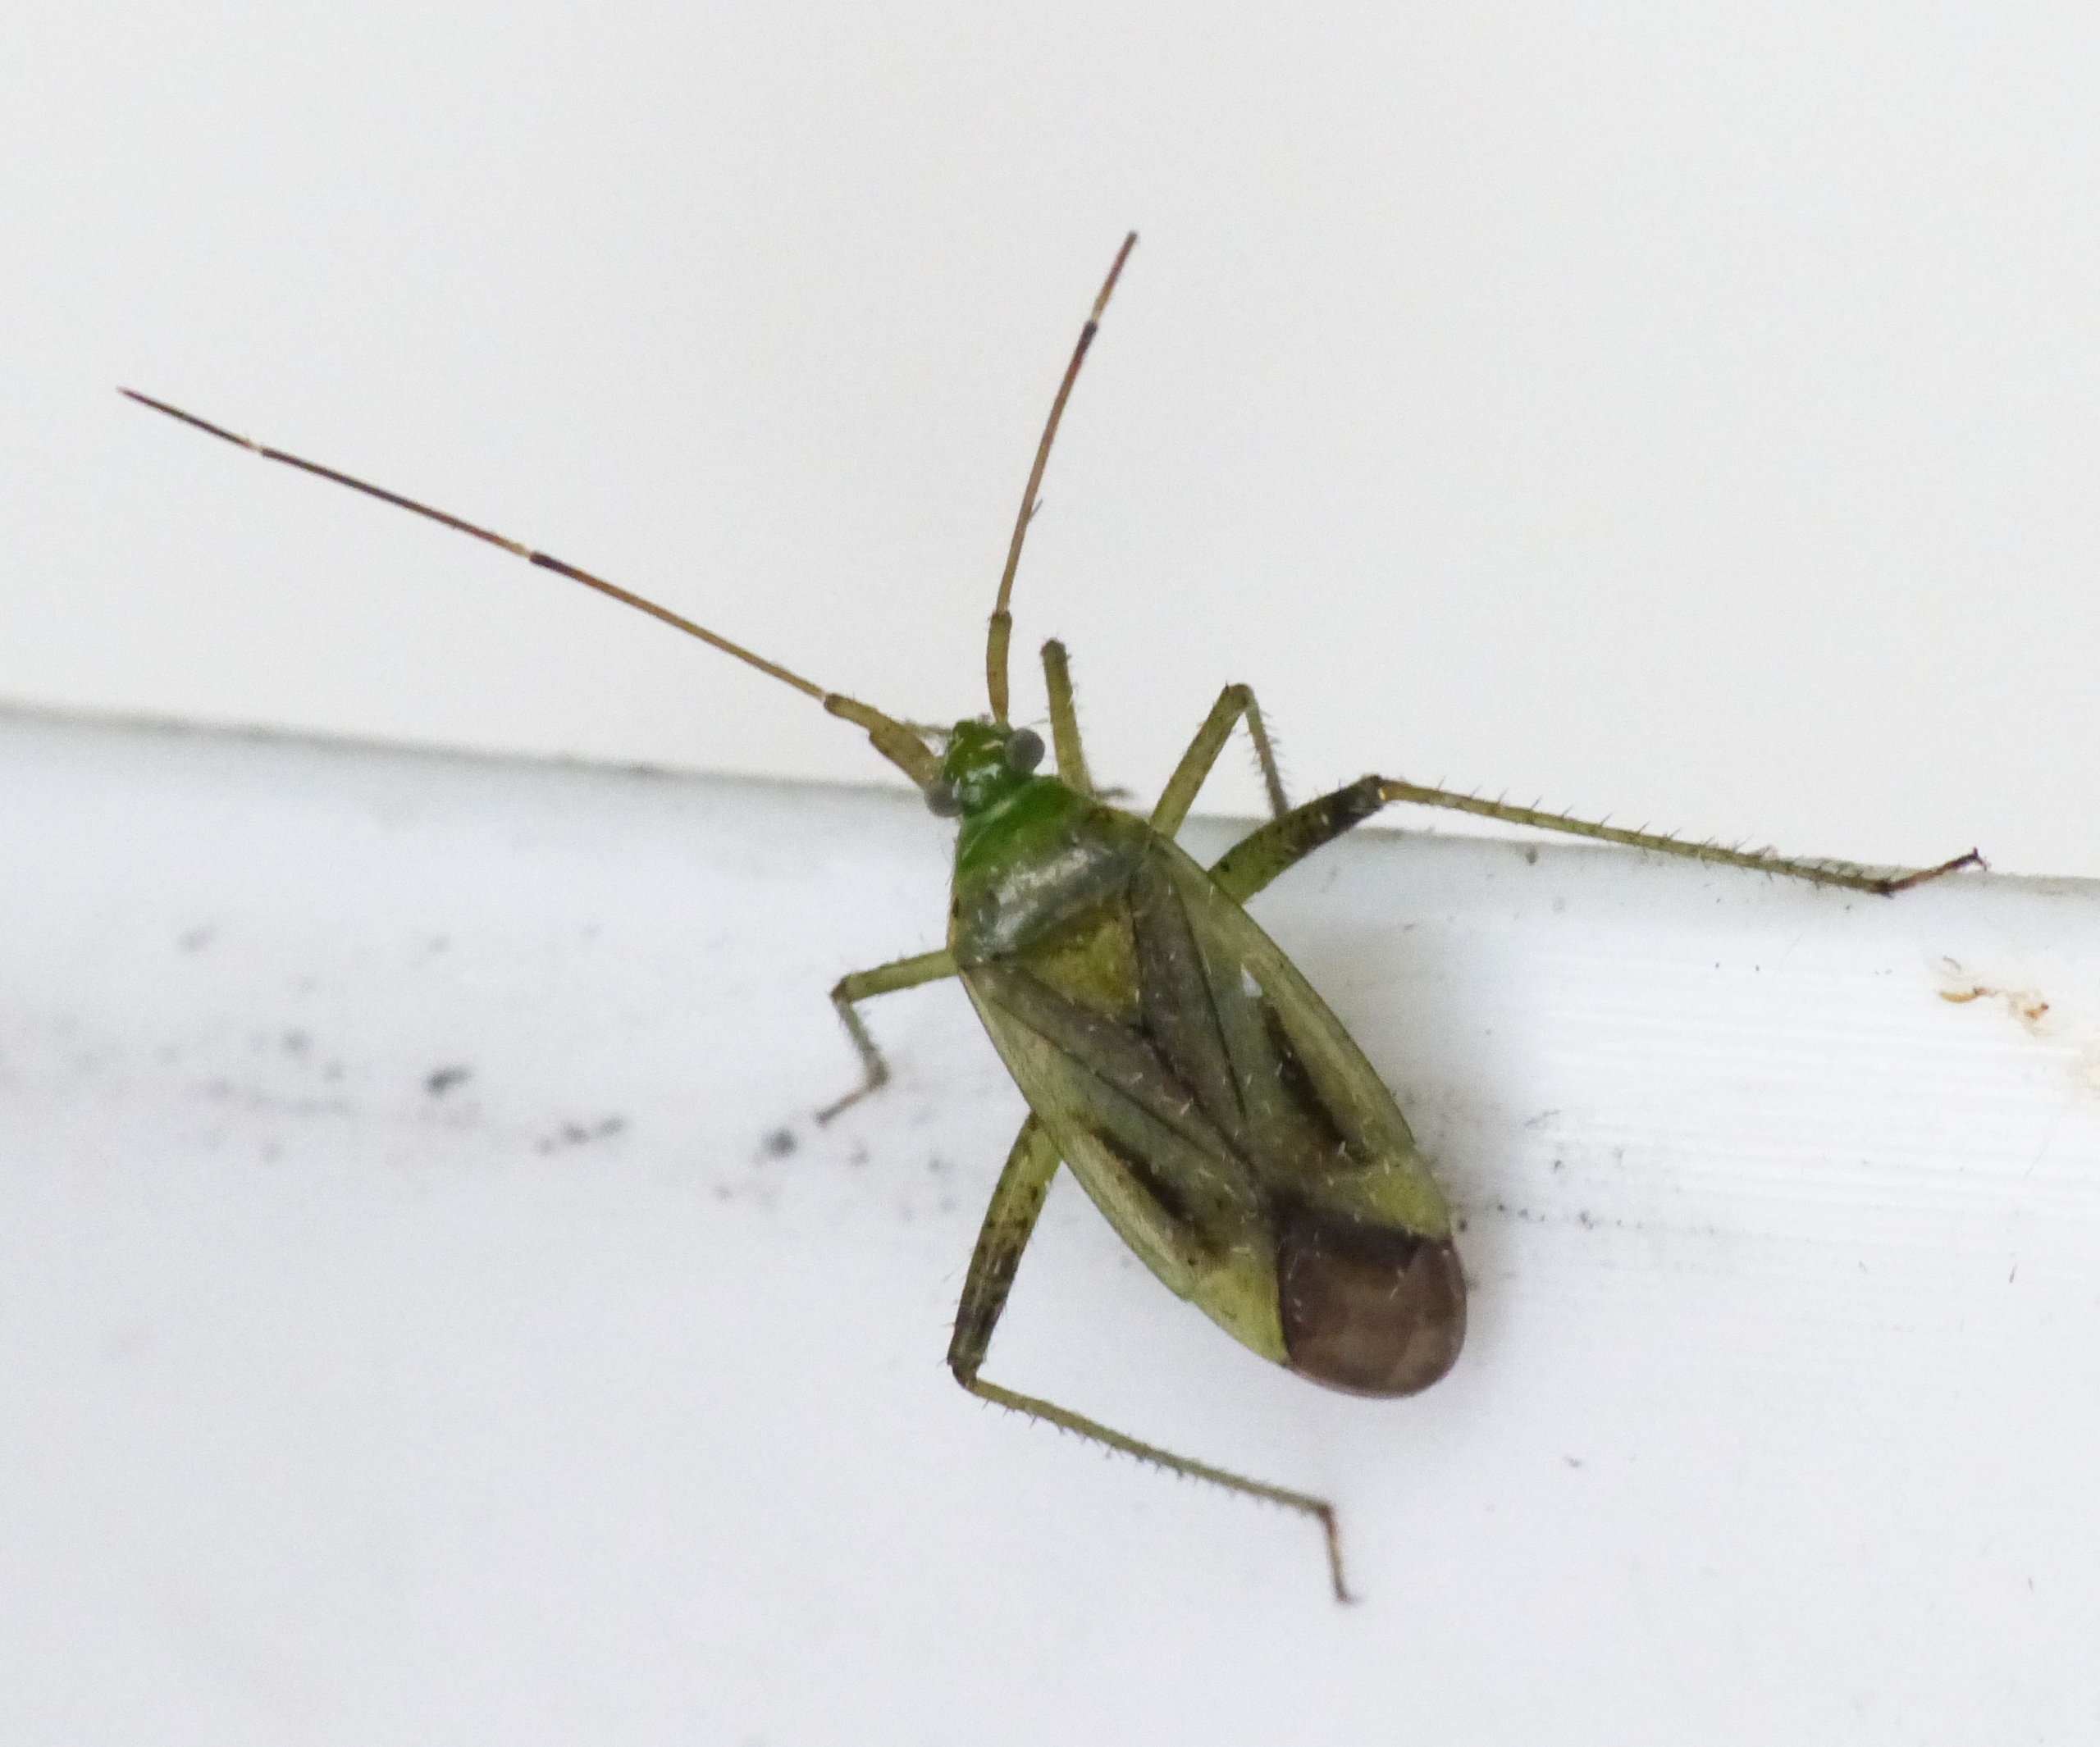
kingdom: Animalia
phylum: Arthropoda
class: Insecta
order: Hemiptera
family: Miridae
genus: Adelphocoris
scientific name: Adelphocoris quadripunctatus
